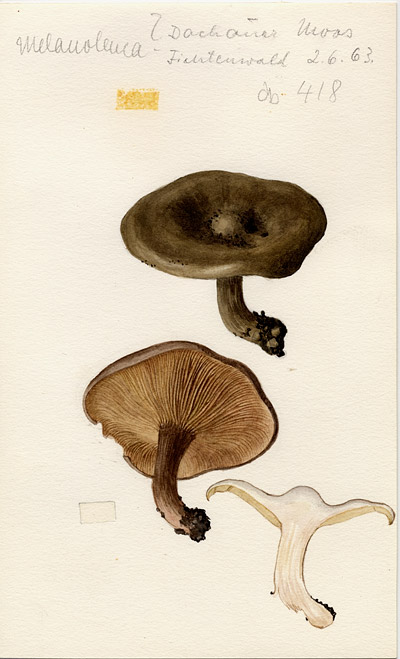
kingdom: Fungi
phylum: Basidiomycota
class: Agaricomycetes
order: Agaricales
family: Tricholomataceae
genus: Melanoleuca
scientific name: Melanoleuca
